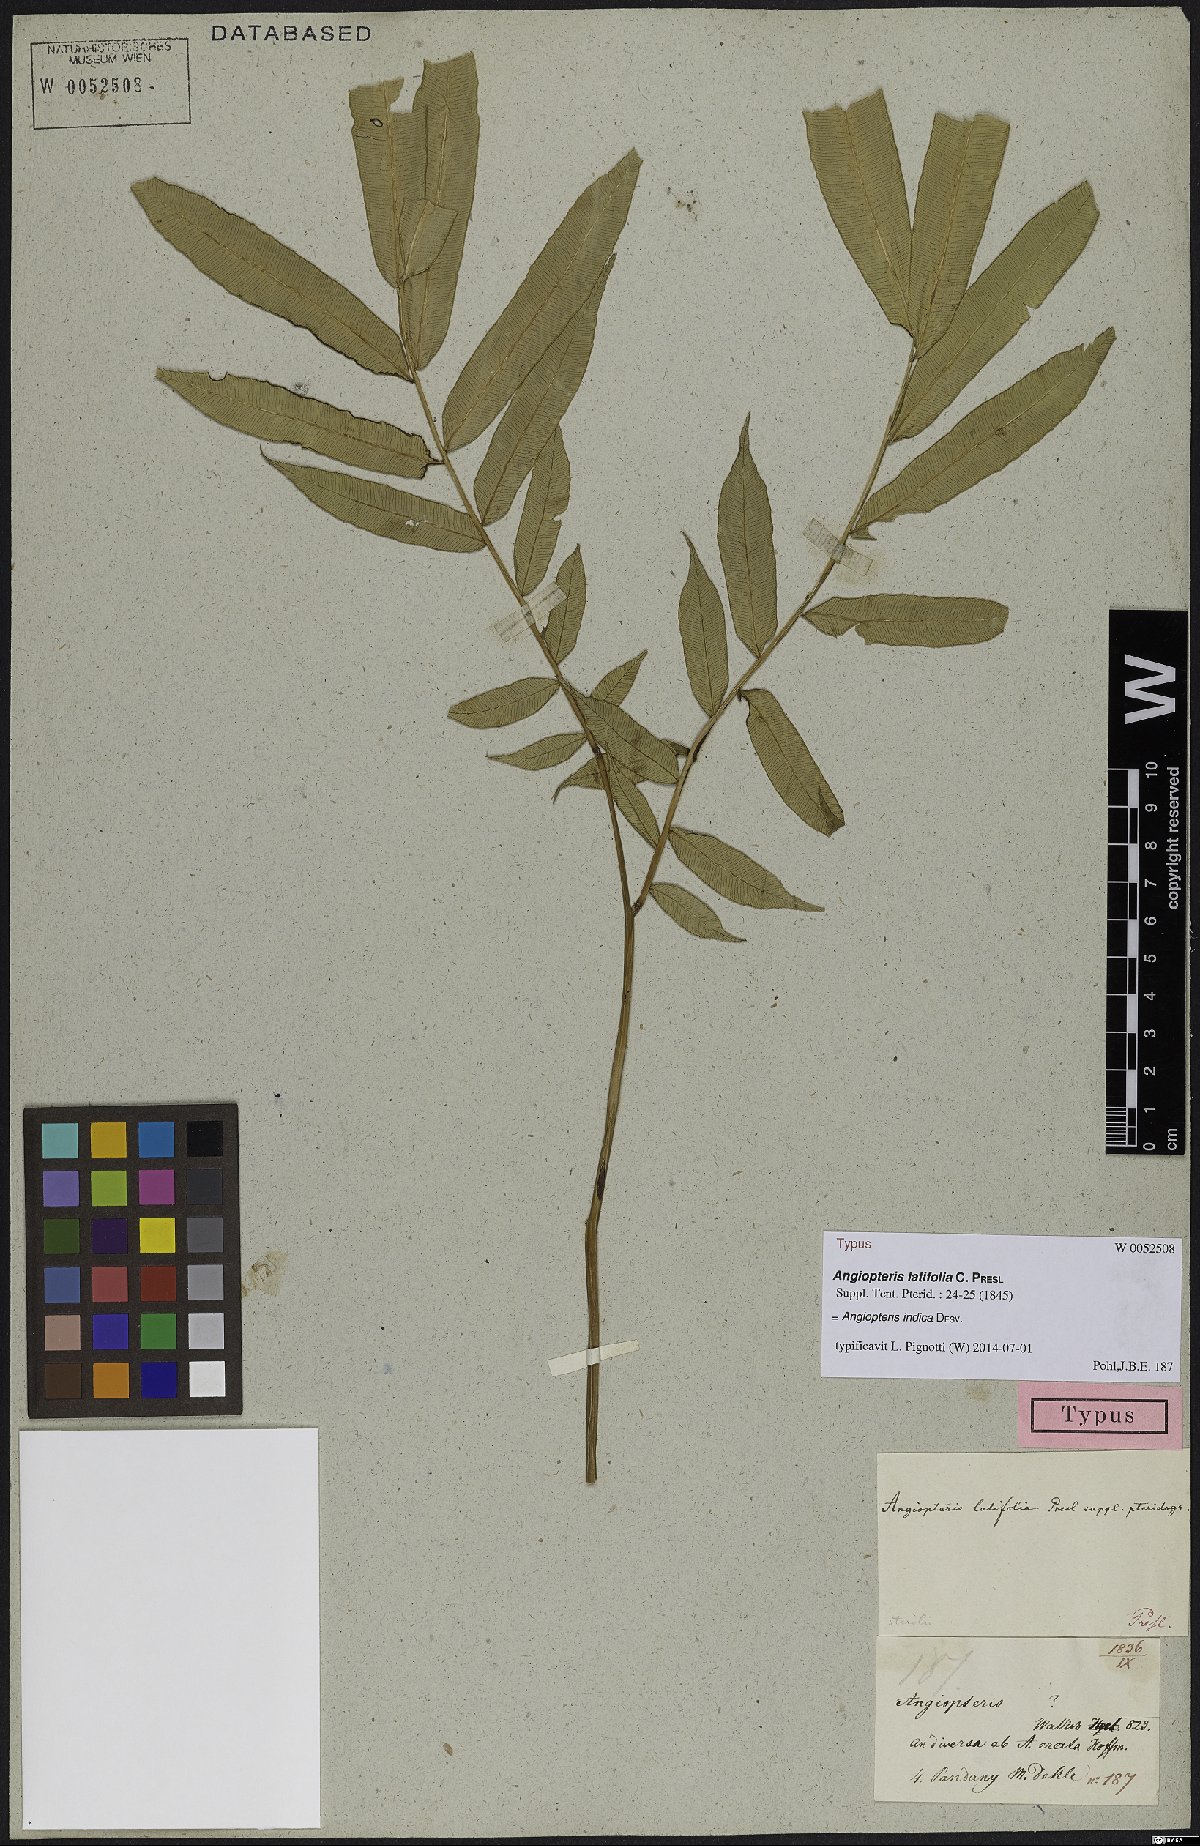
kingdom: Plantae
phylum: Tracheophyta
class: Polypodiopsida
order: Marattiales
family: Marattiaceae
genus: Angiopteris
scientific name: Angiopteris indica
